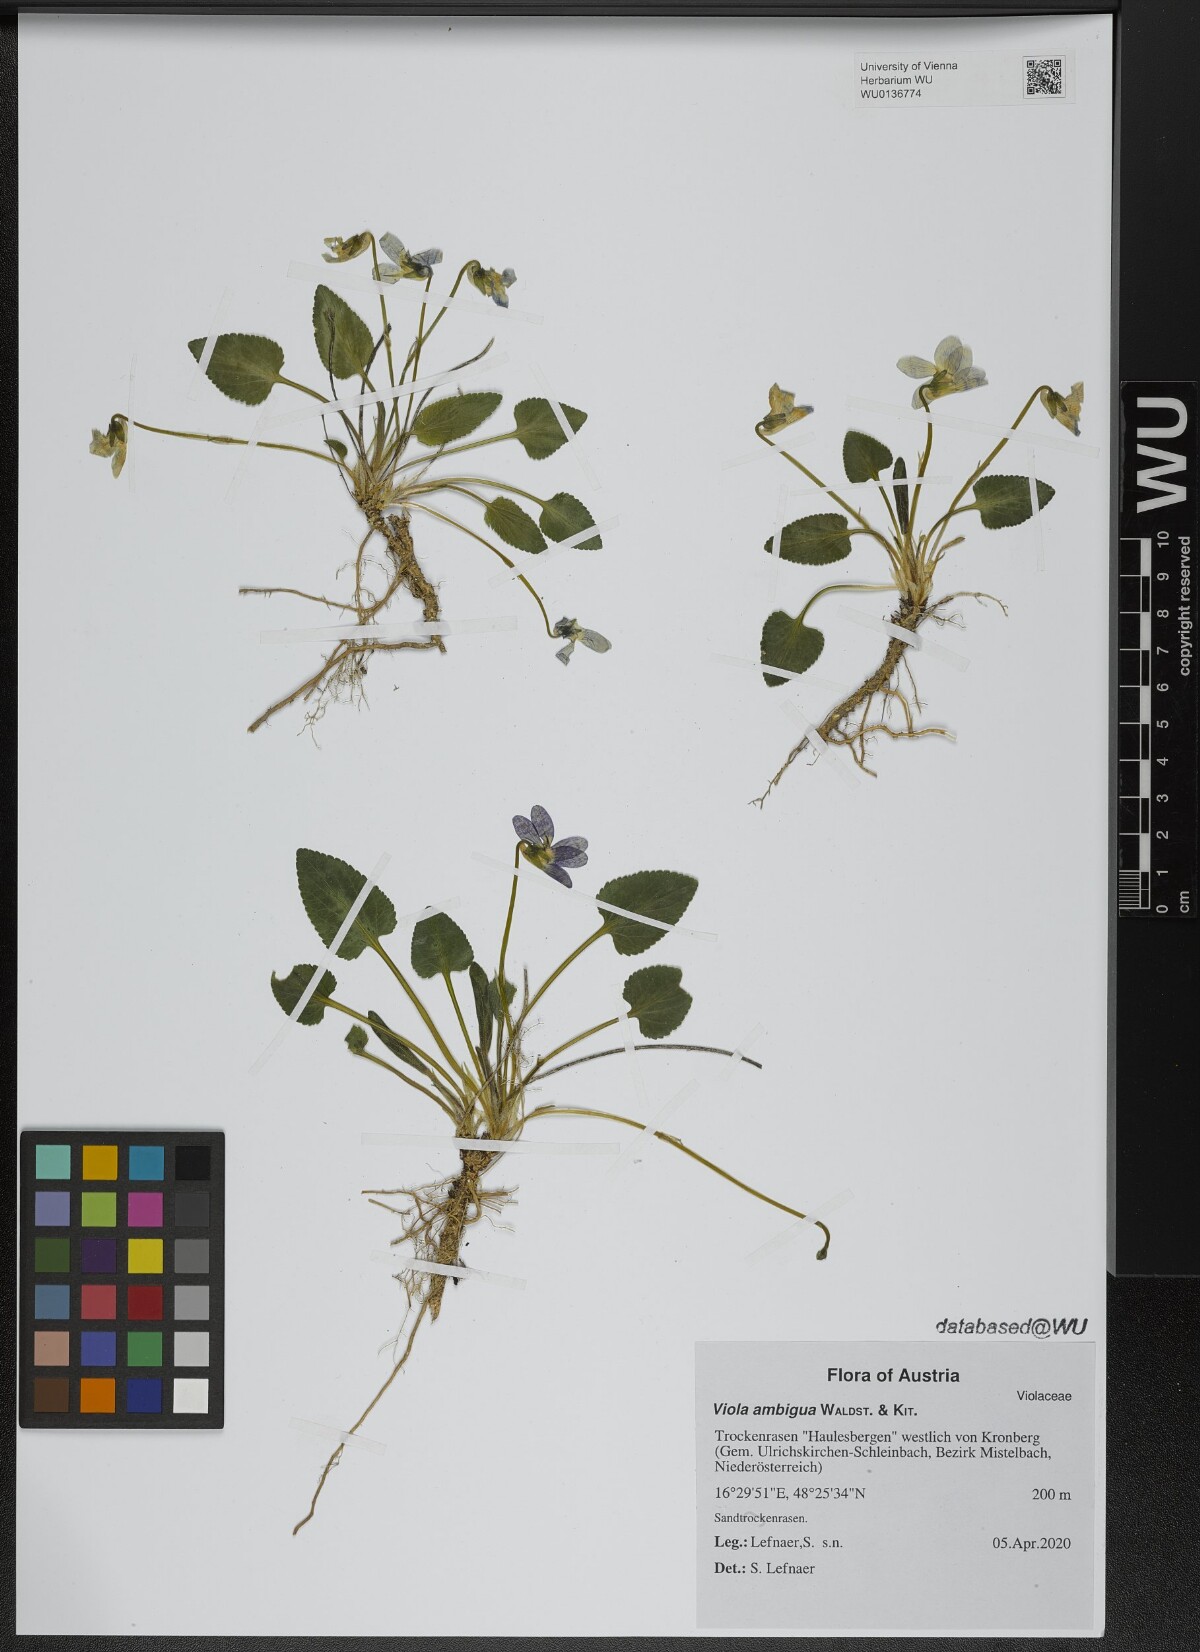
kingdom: Plantae
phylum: Tracheophyta
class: Magnoliopsida
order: Malpighiales
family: Violaceae
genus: Viola
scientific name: Viola ambigua
